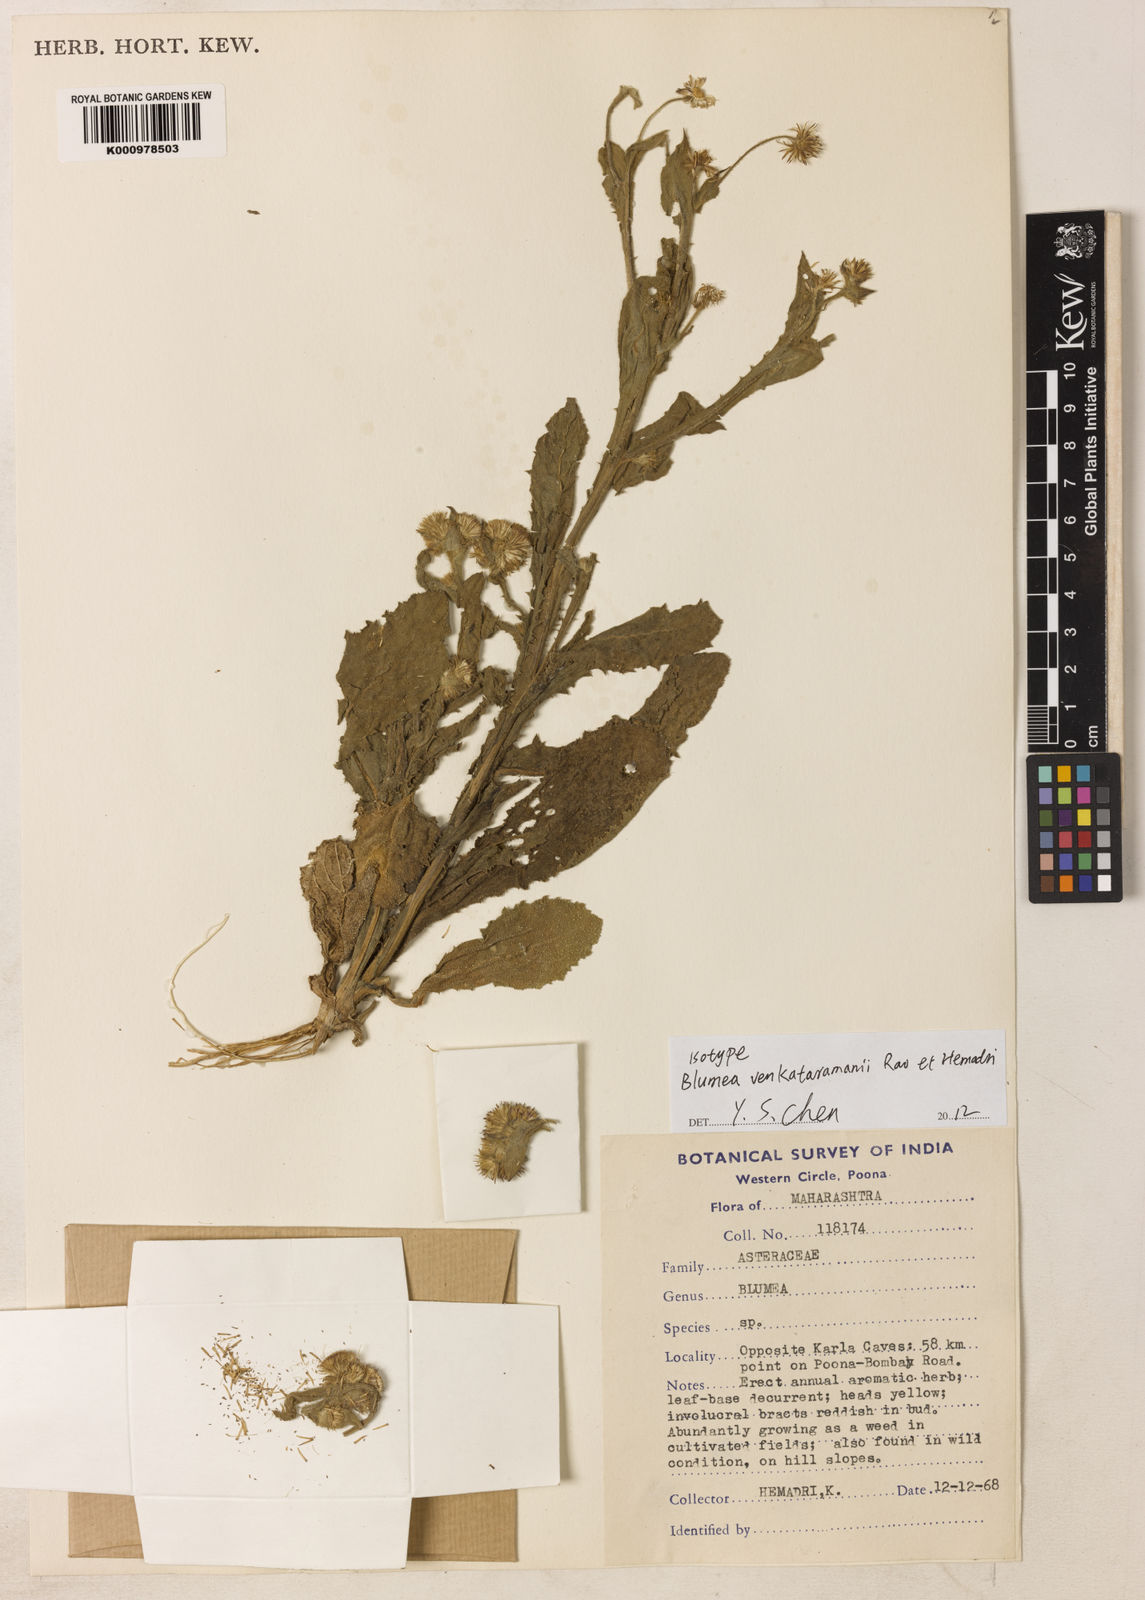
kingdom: Plantae
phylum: Tracheophyta
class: Magnoliopsida
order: Asterales
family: Asteraceae
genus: Blumea
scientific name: Blumea venkataramanii
